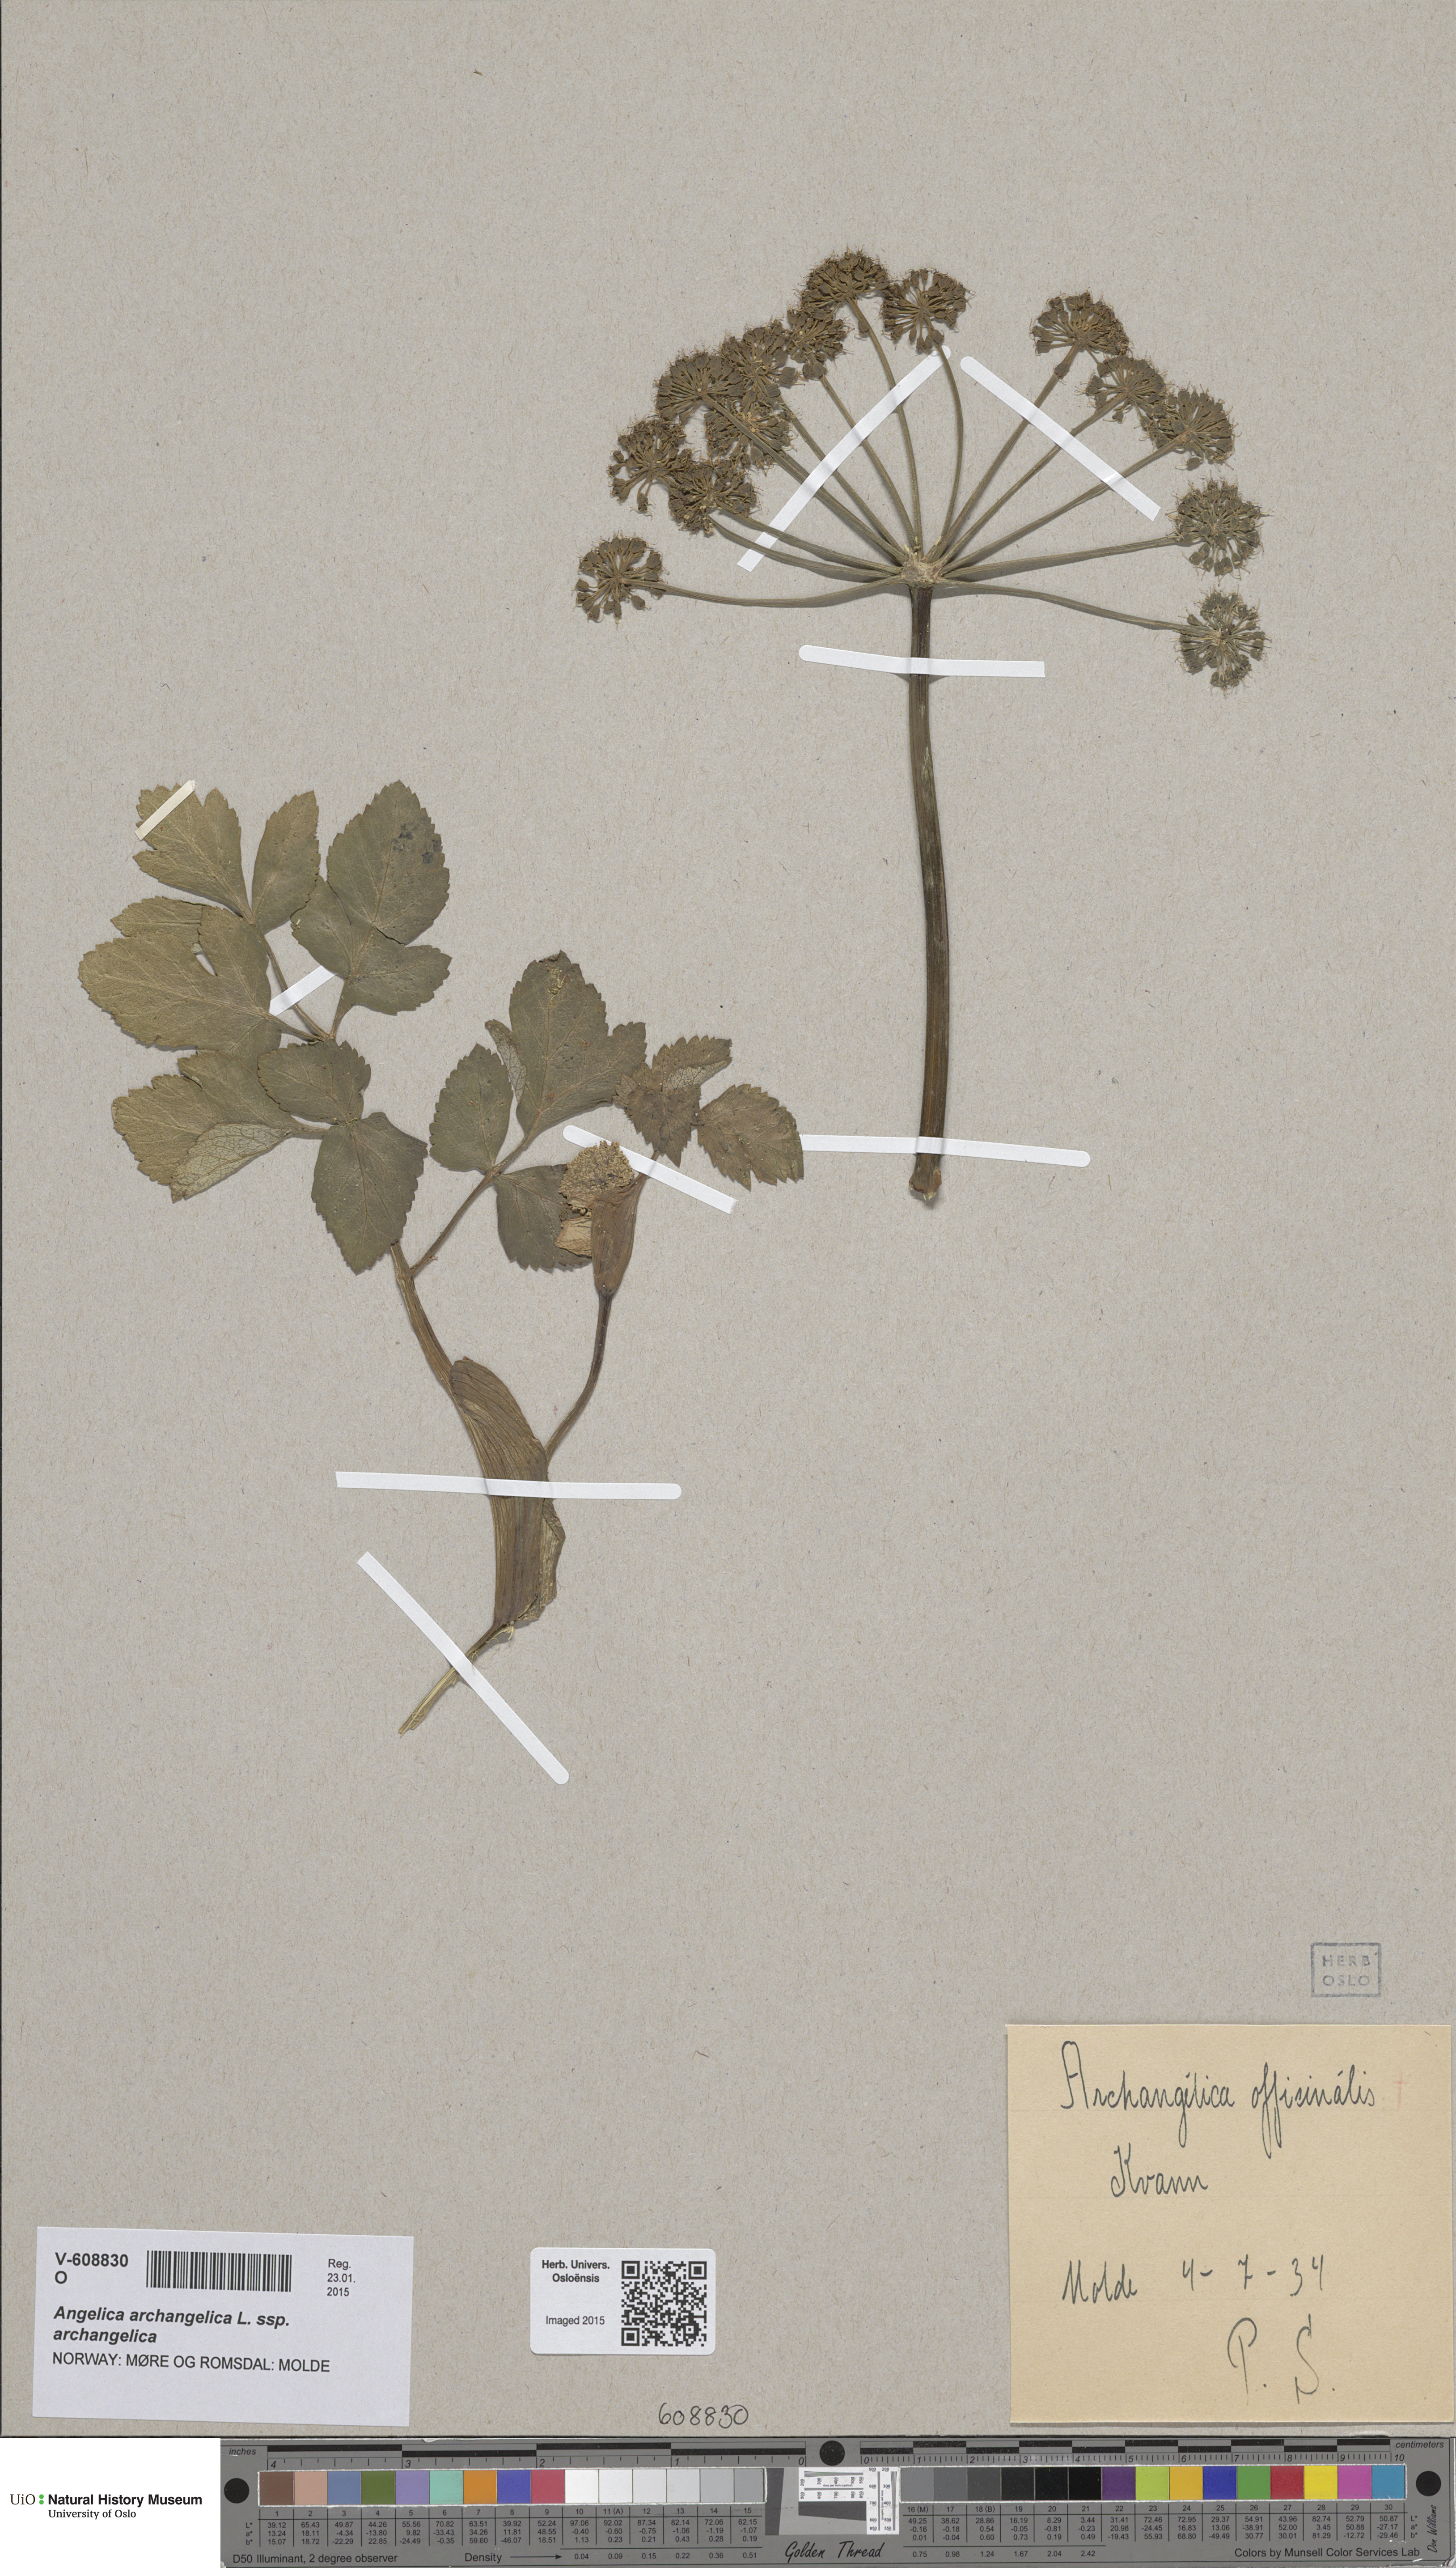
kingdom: Plantae
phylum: Tracheophyta
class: Magnoliopsida
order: Apiales
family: Apiaceae
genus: Angelica
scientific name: Angelica archangelica
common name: Garden angelica
